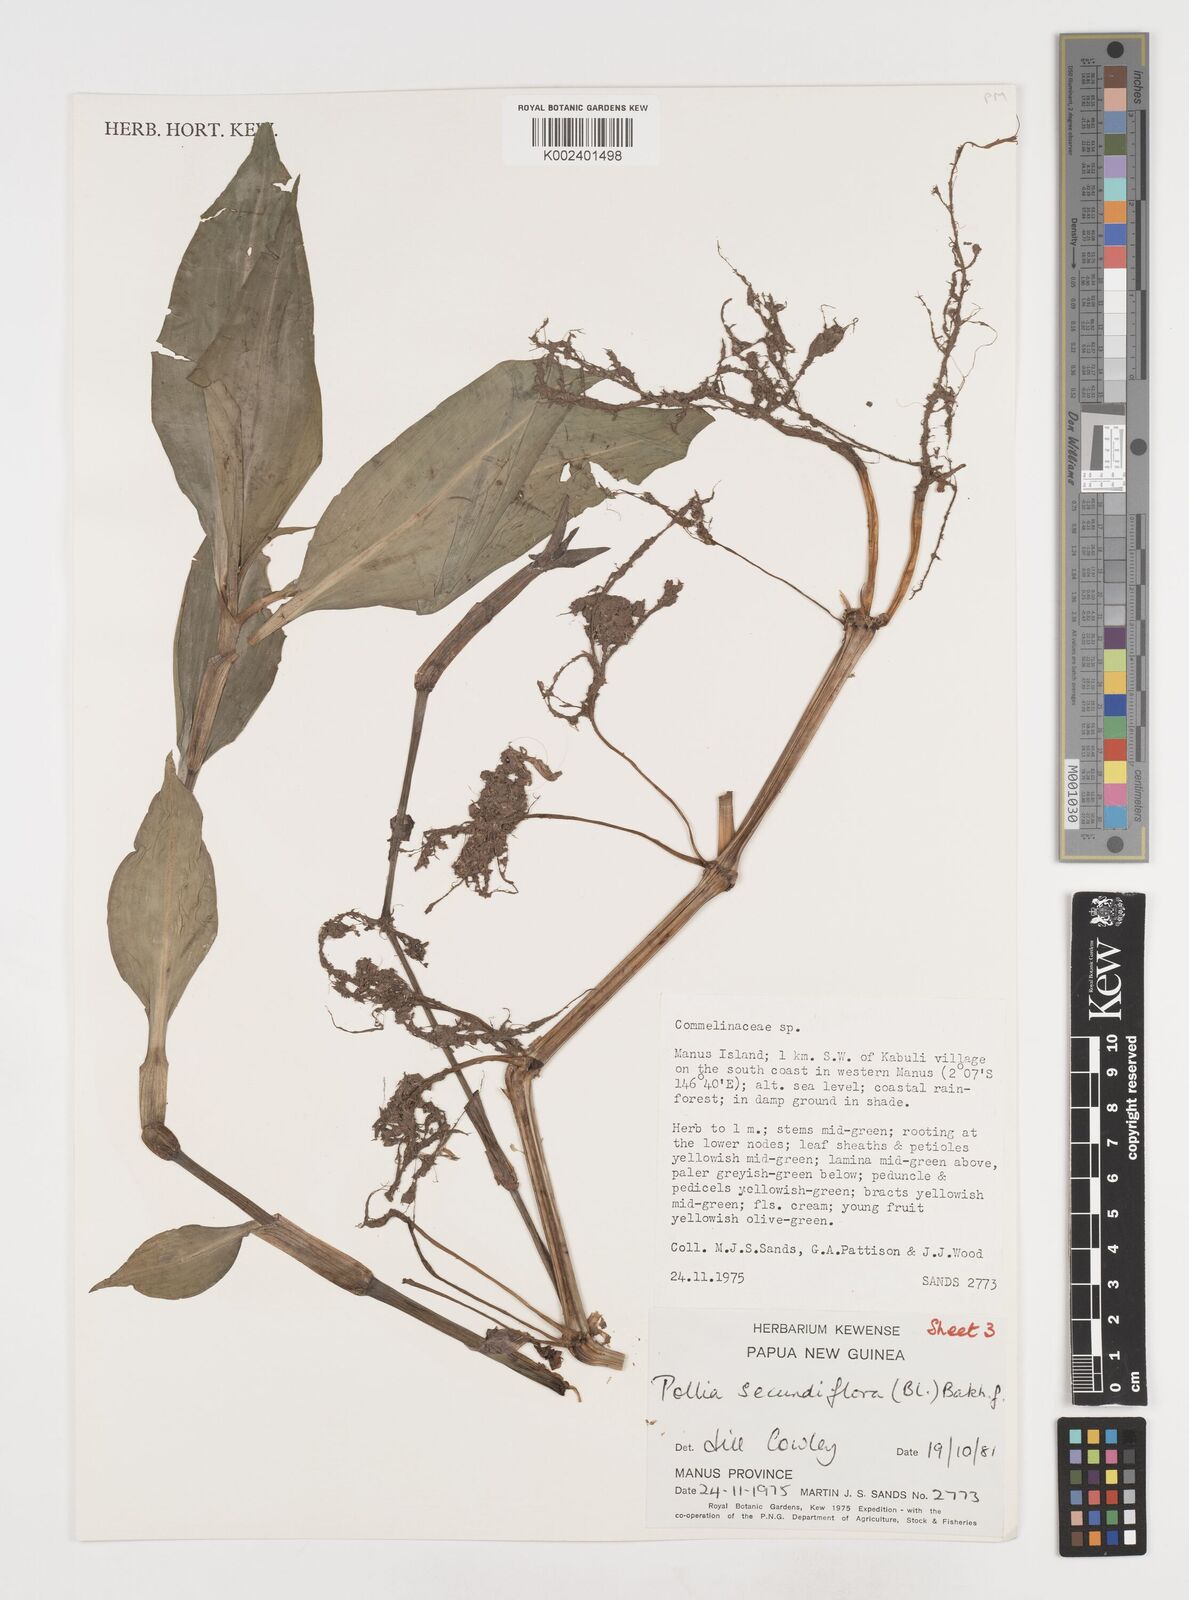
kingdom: Plantae
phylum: Tracheophyta
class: Liliopsida
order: Commelinales
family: Commelinaceae
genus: Pollia
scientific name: Pollia secundiflora
